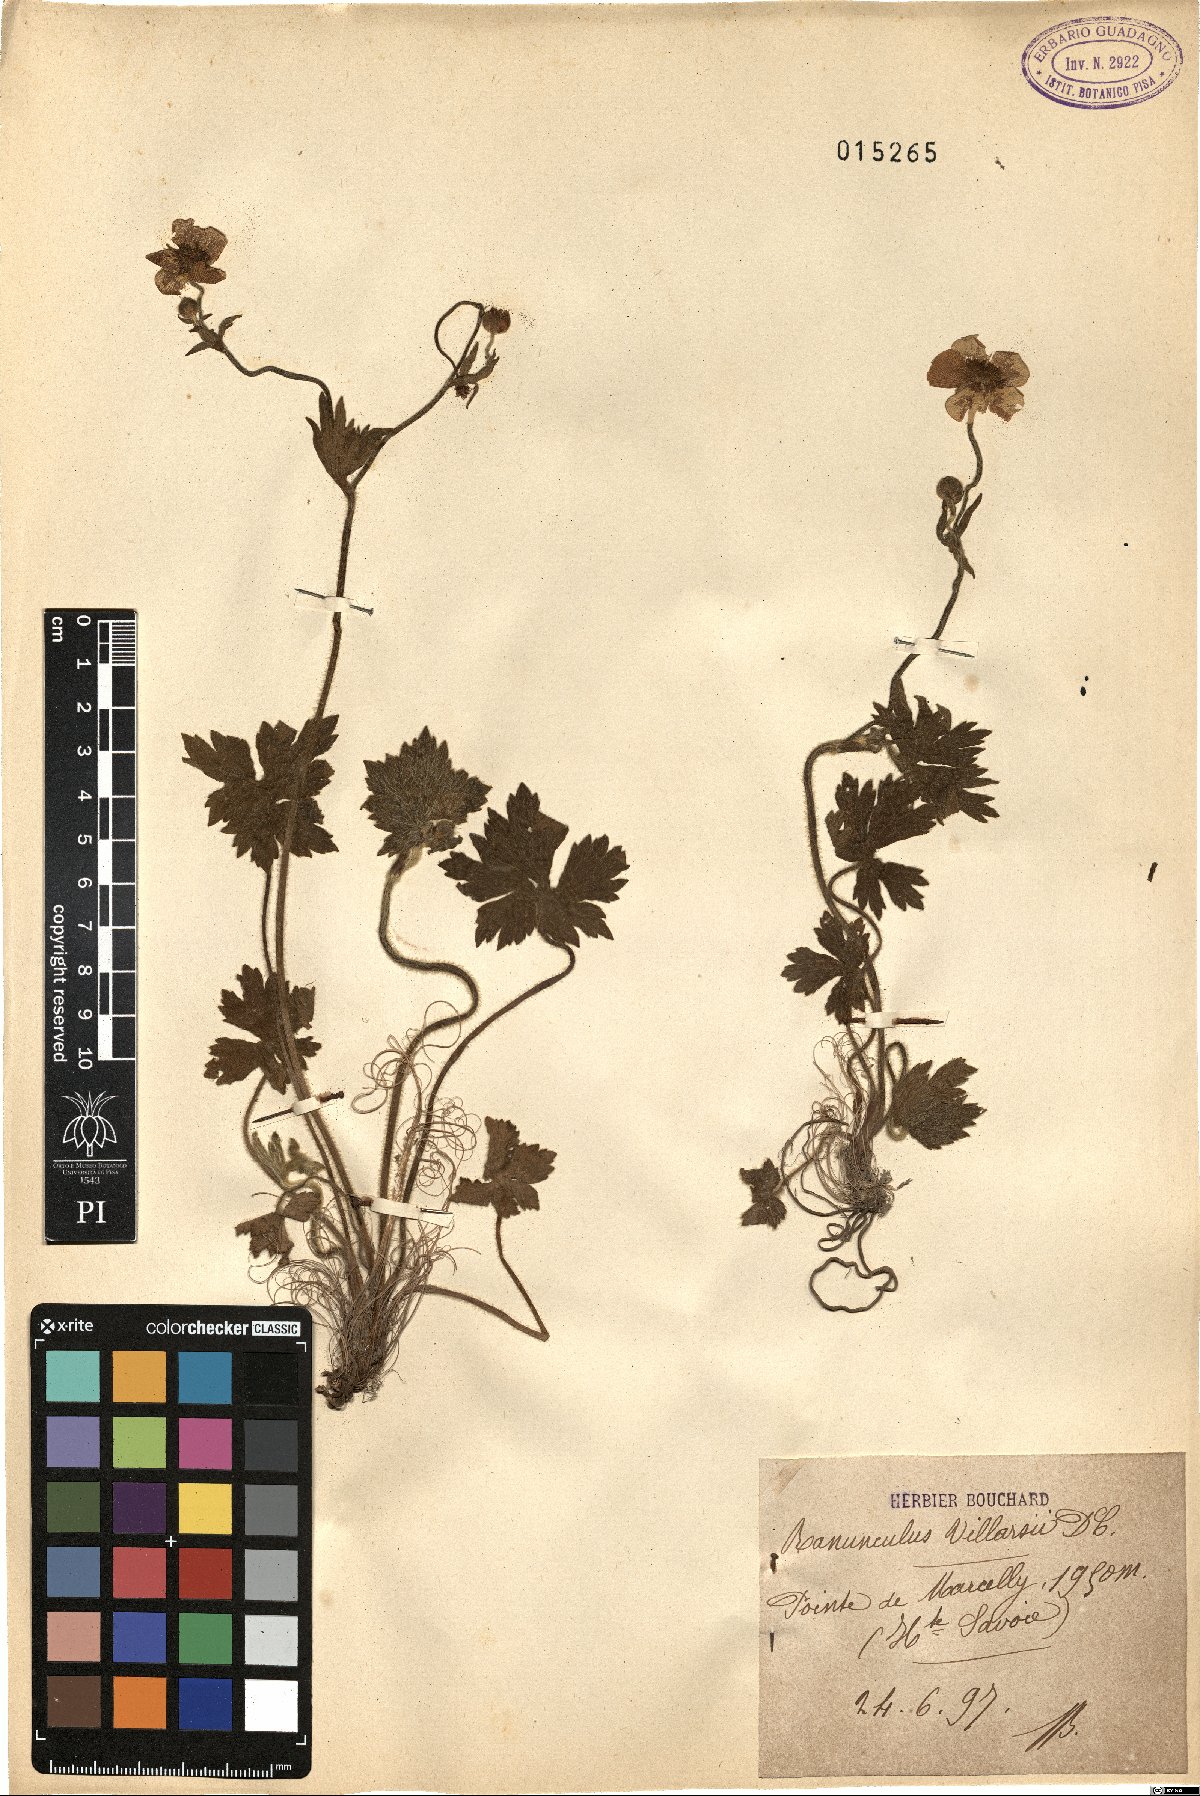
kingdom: Plantae
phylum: Tracheophyta
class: Magnoliopsida
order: Ranunculales
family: Ranunculaceae
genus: Ranunculus
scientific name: Ranunculus villarsii
